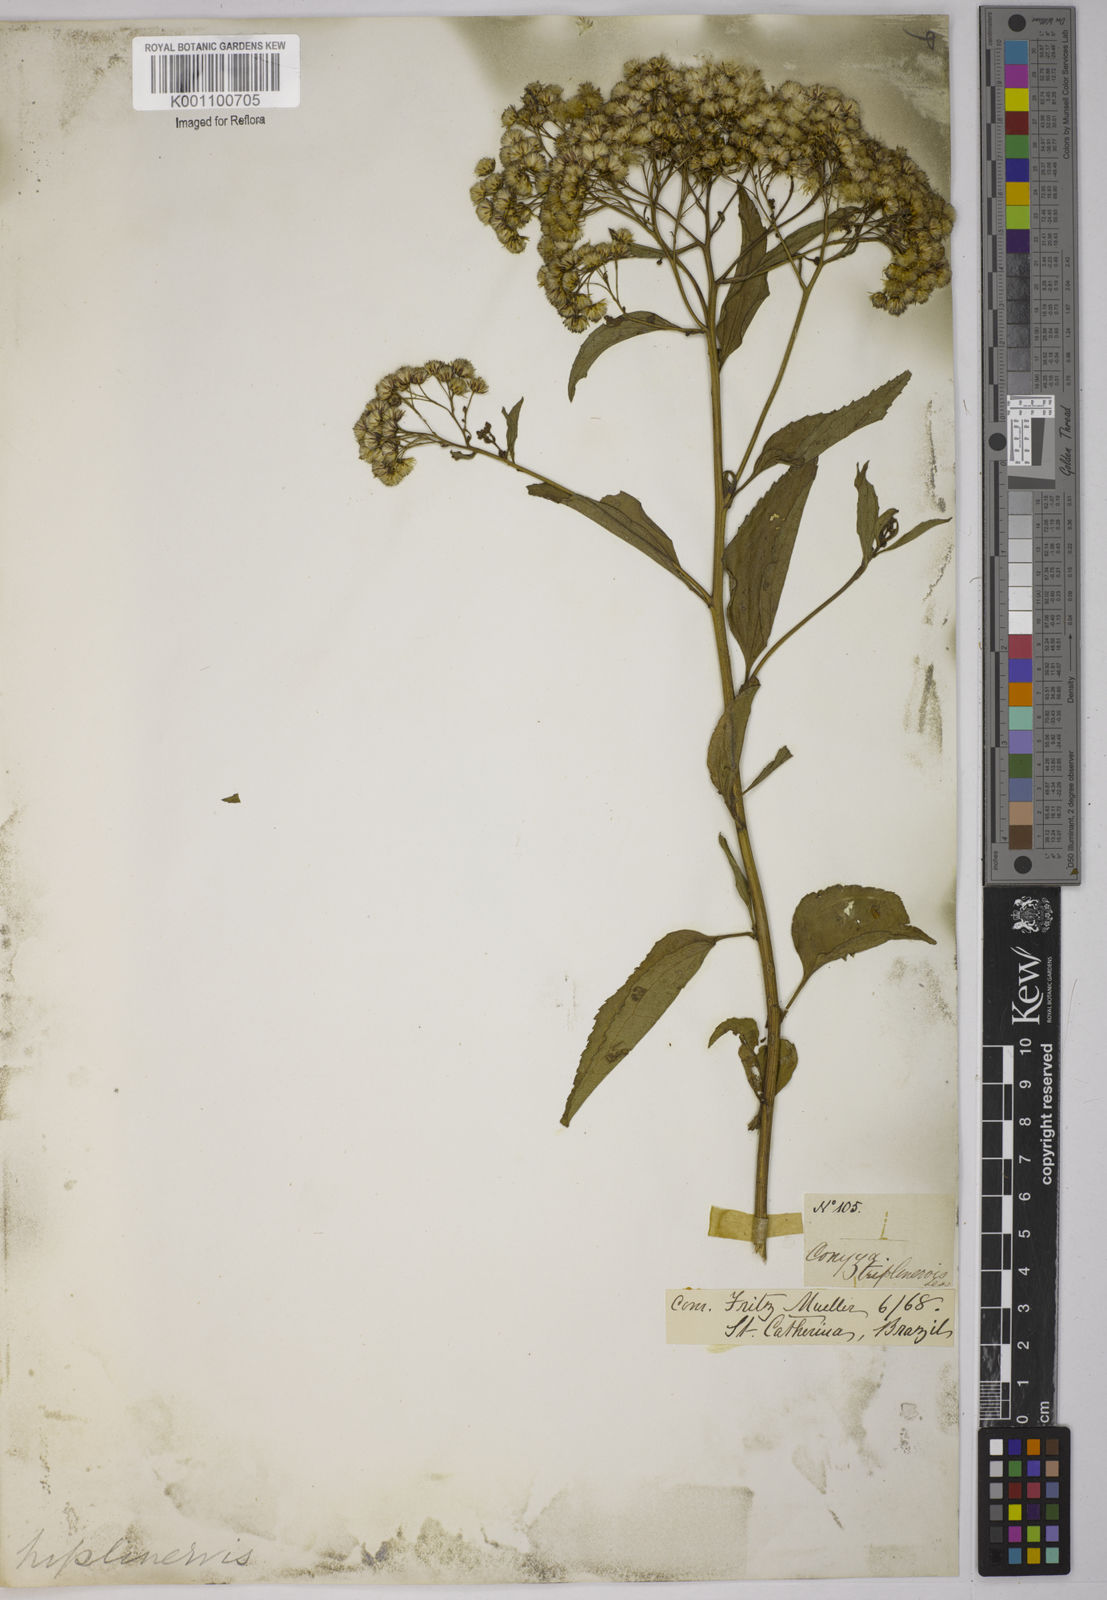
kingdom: Plantae
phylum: Tracheophyta
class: Magnoliopsida
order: Asterales
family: Asteraceae
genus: Archibaccharis
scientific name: Archibaccharis vulneraria
